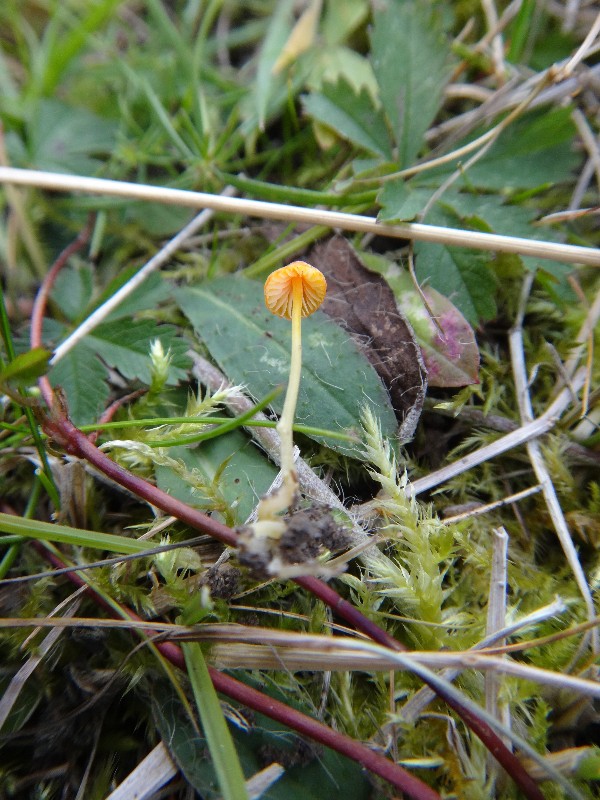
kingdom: Fungi
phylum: Basidiomycota
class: Agaricomycetes
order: Agaricales
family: Mycenaceae
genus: Mycena
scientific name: Mycena acicula
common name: orange huesvamp
